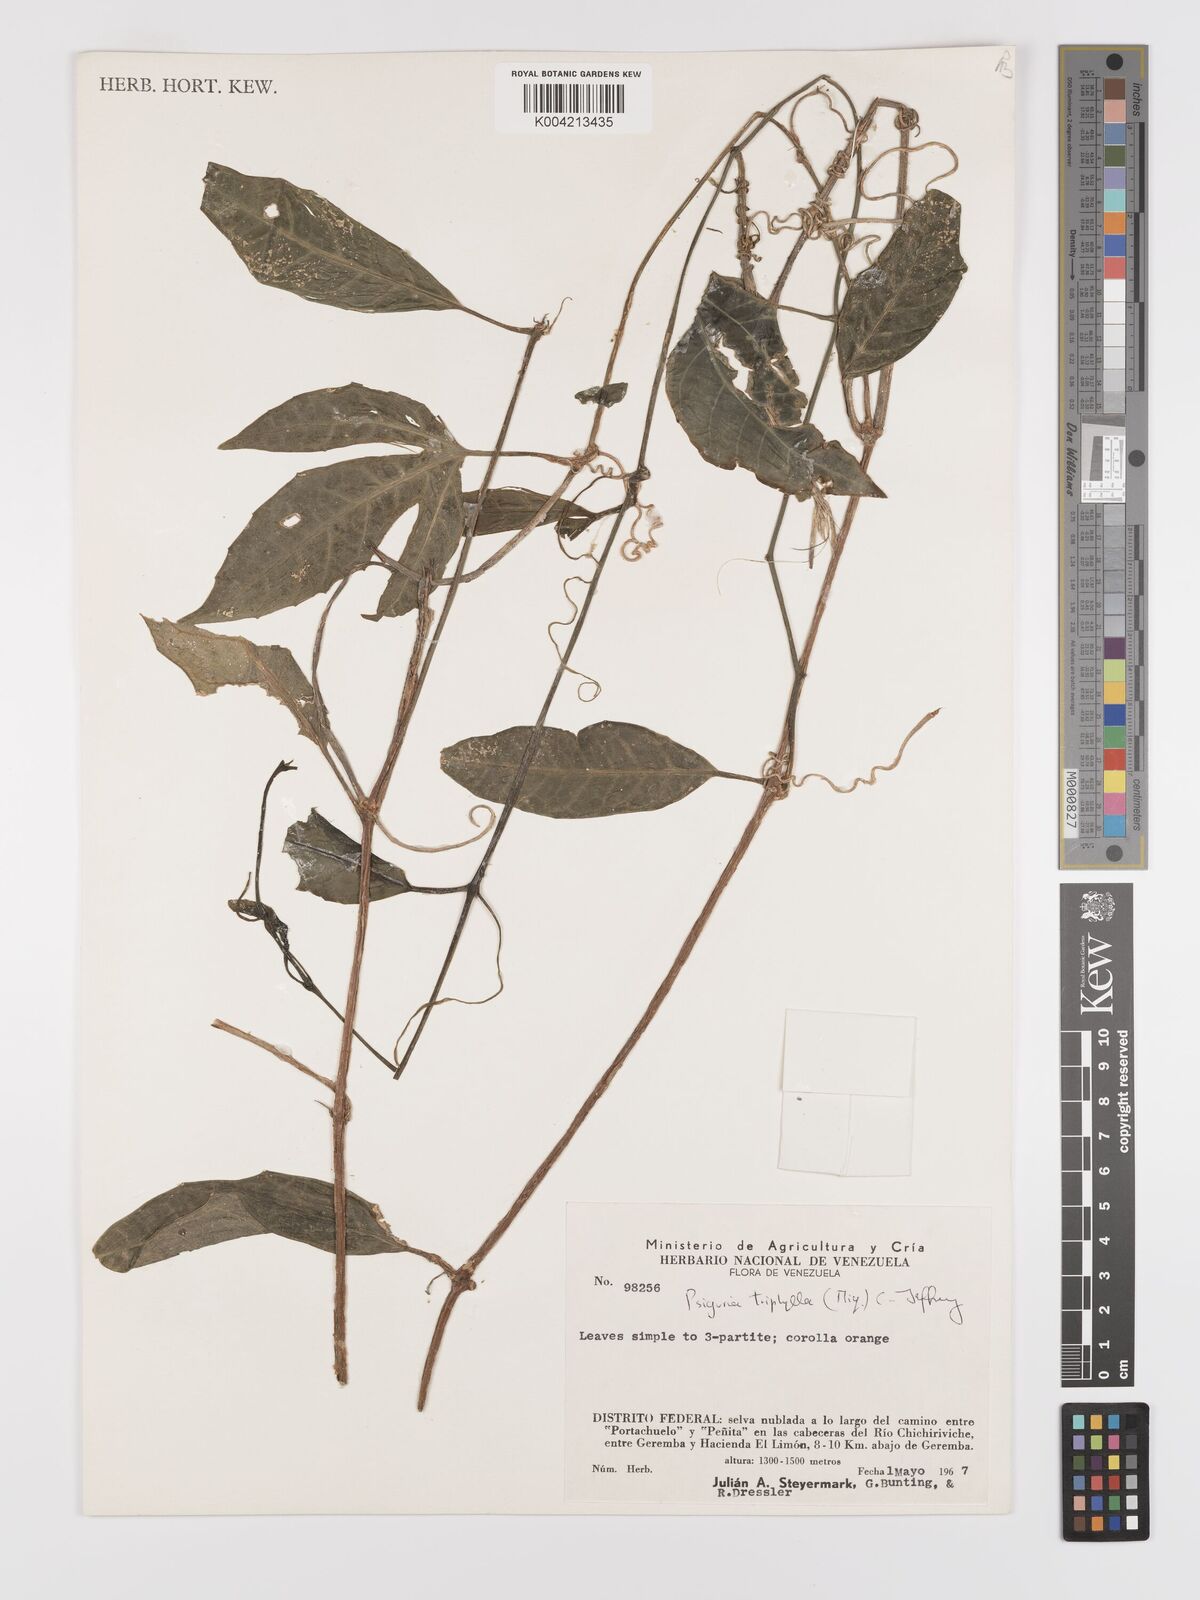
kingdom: Plantae
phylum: Tracheophyta
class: Magnoliopsida
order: Cucurbitales
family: Cucurbitaceae
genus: Psiguria
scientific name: Psiguria triphylla
